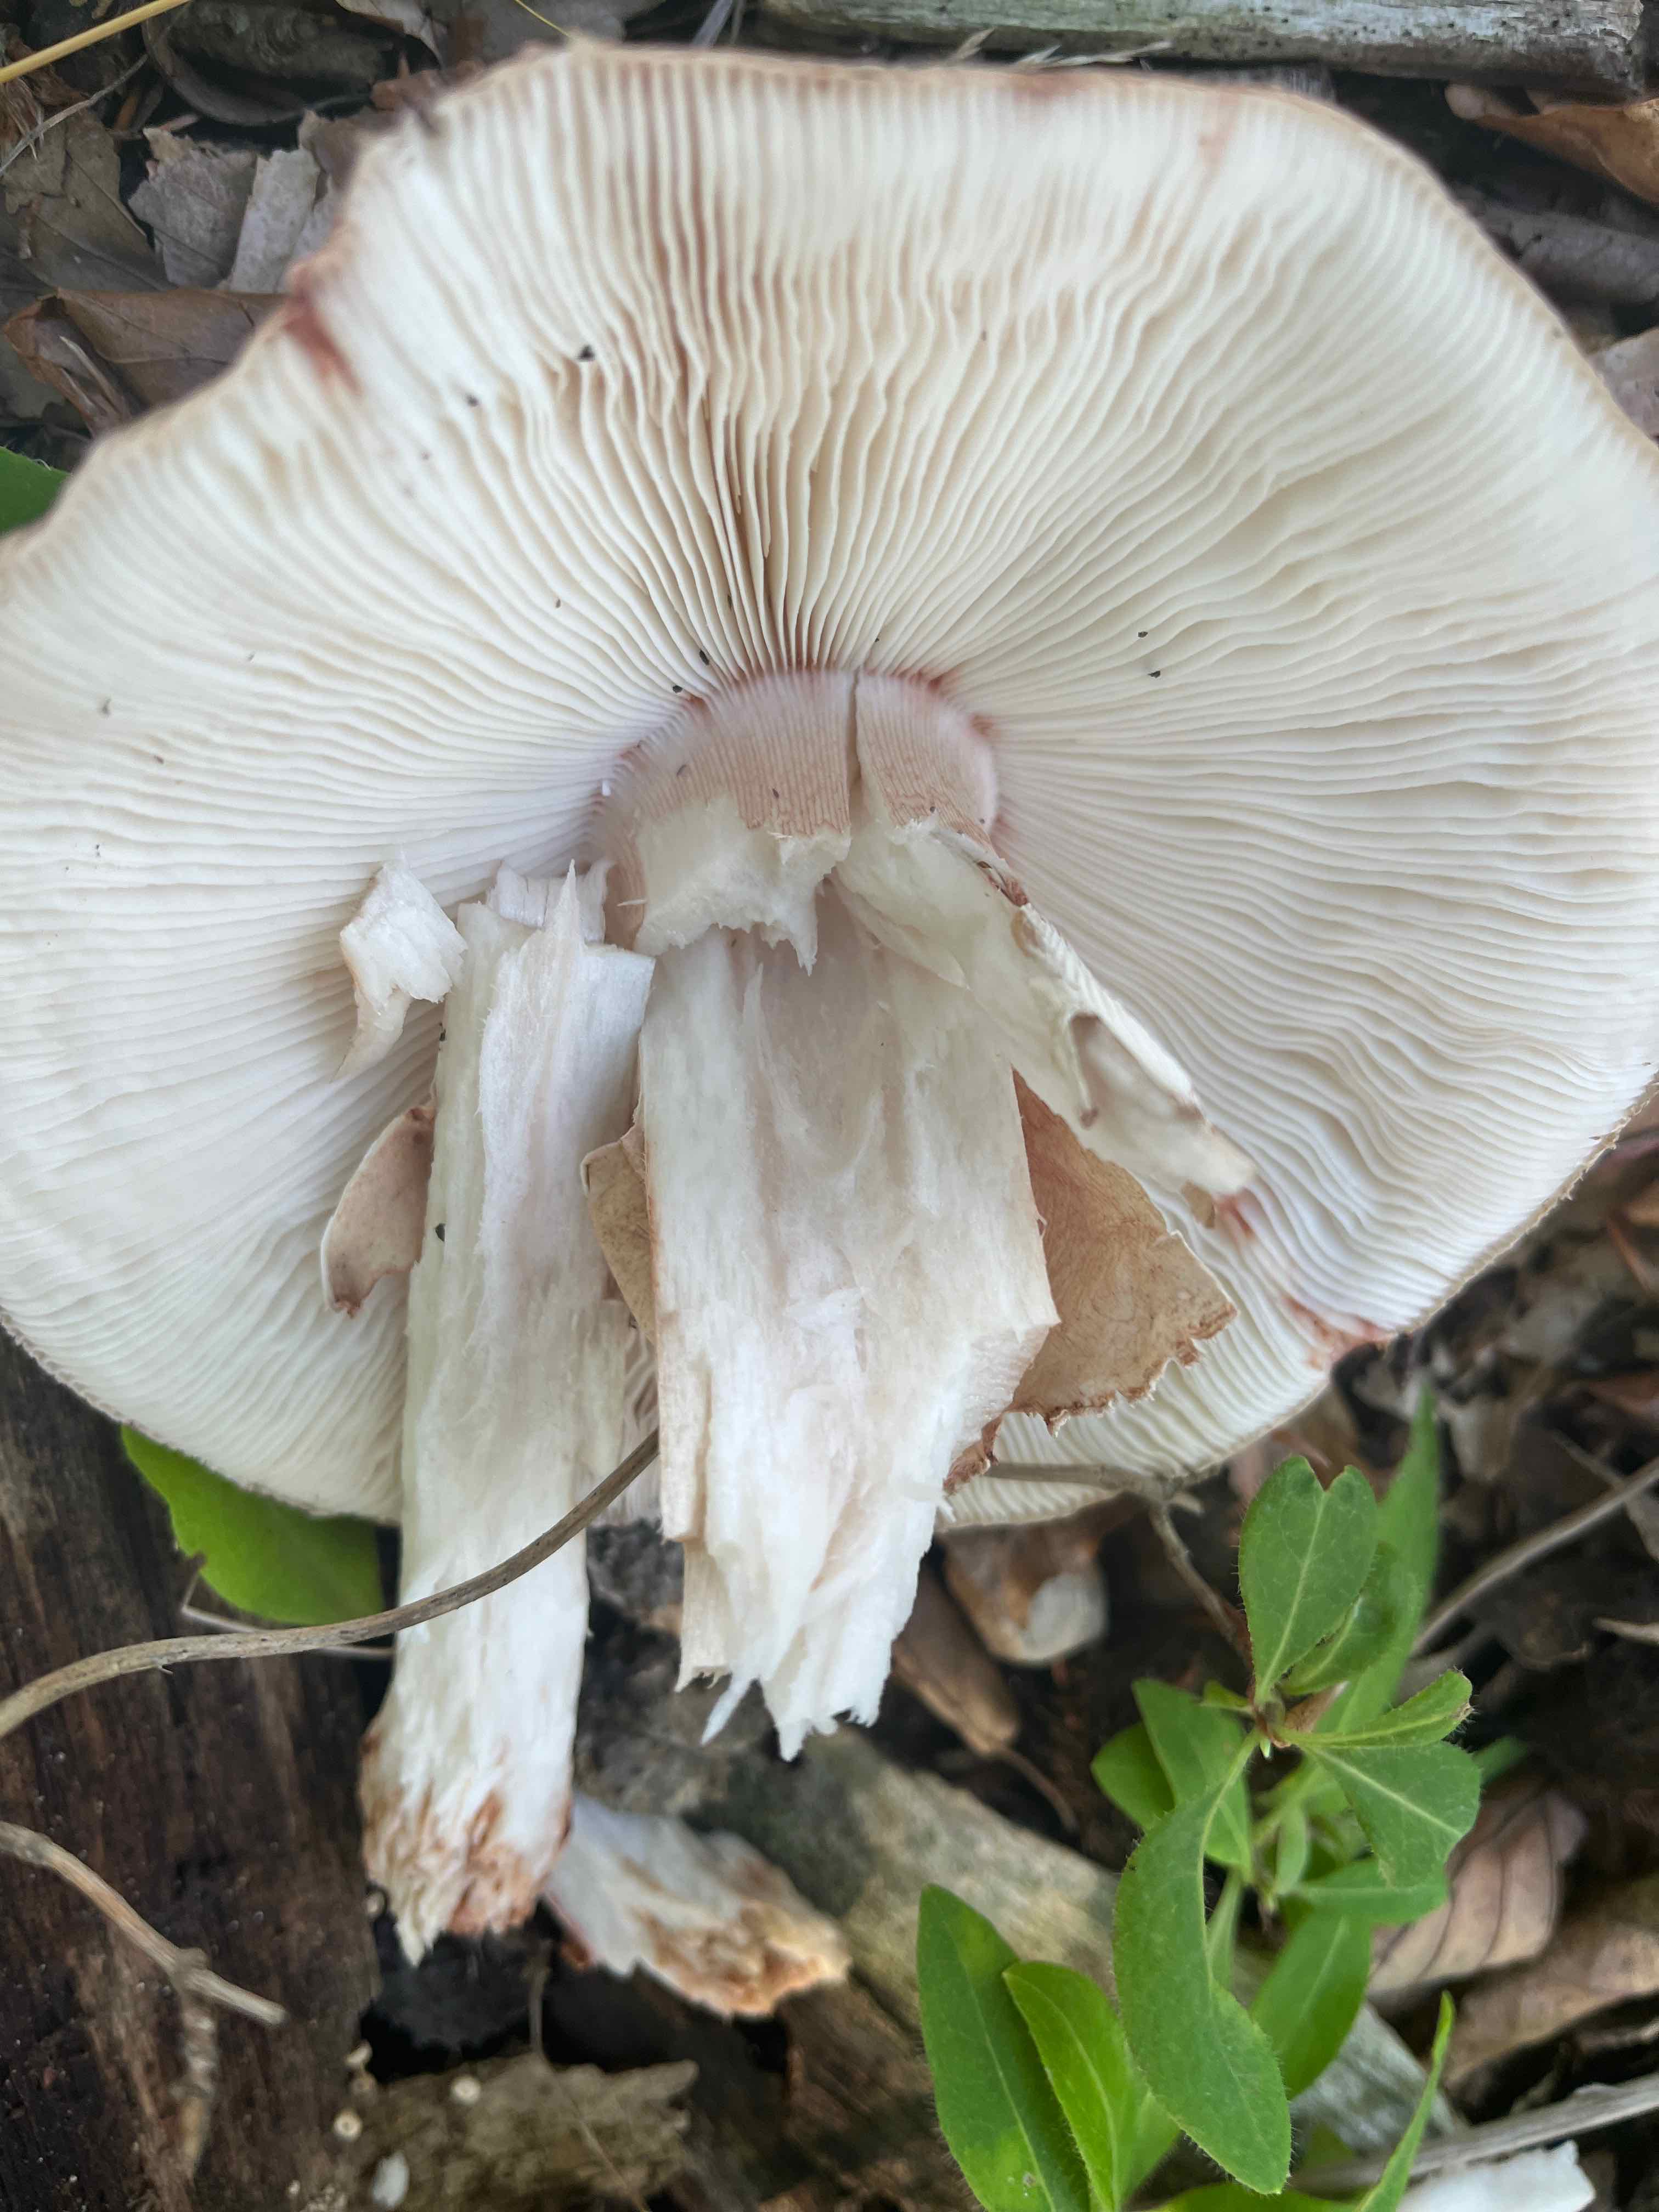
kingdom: Fungi
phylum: Basidiomycota
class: Agaricomycetes
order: Agaricales
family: Amanitaceae
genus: Amanita
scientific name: Amanita rubescens
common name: rødmende fluesvamp
